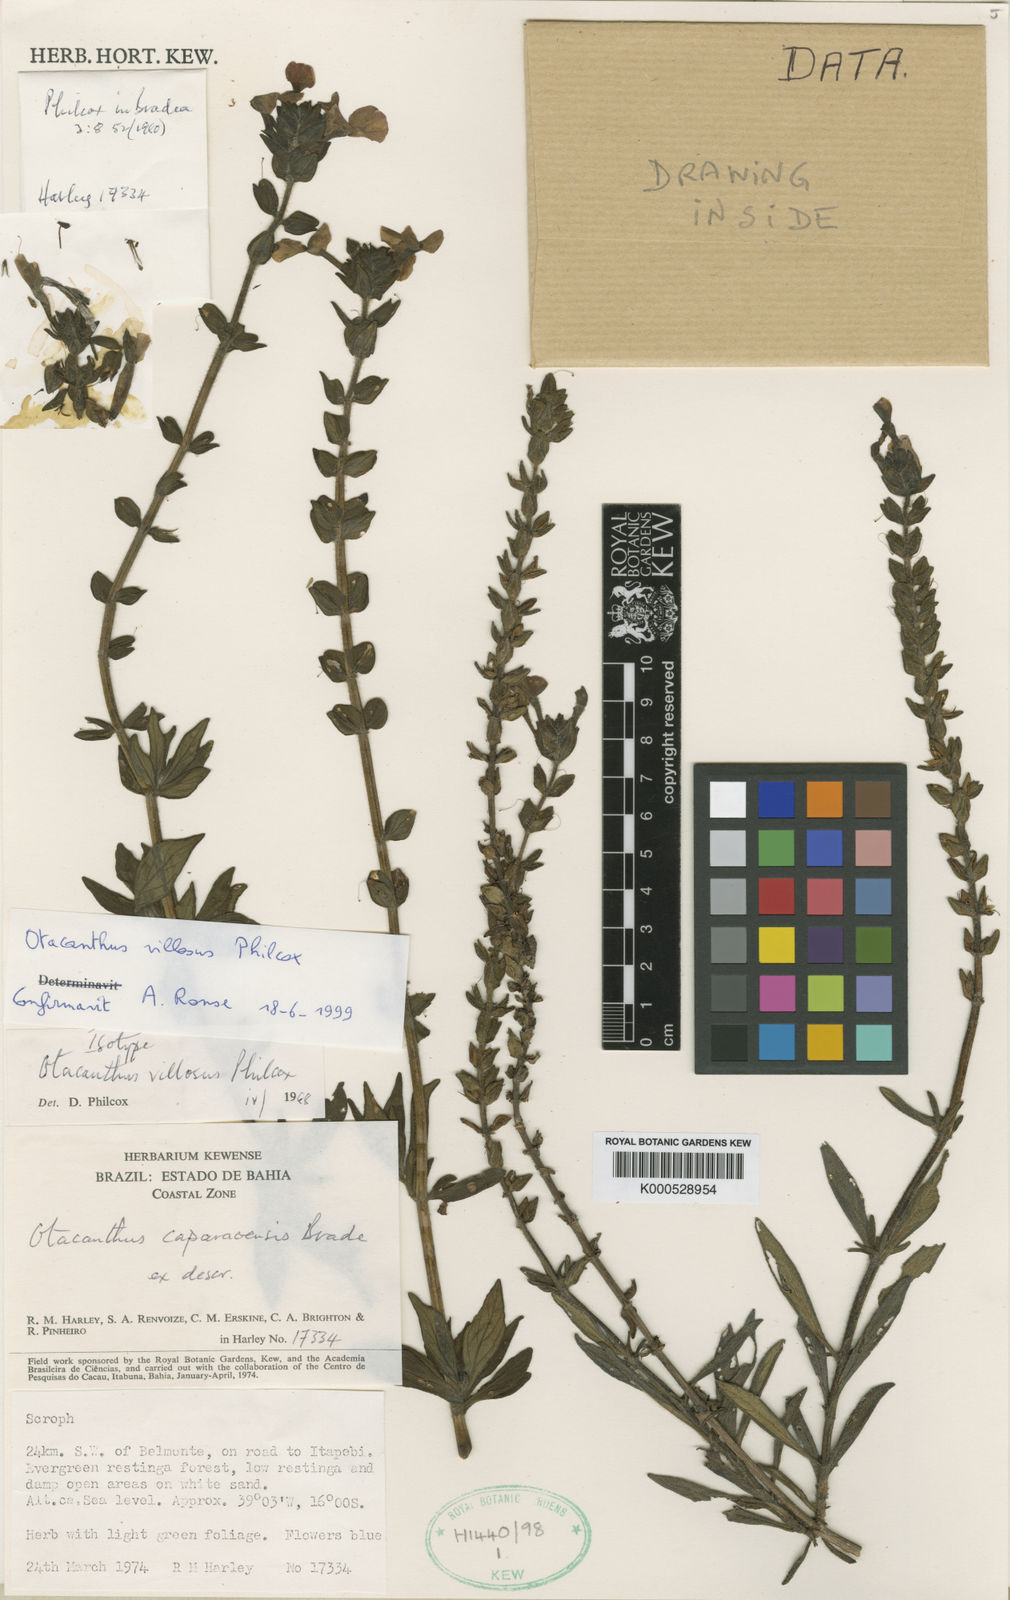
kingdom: Plantae
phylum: Tracheophyta
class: Magnoliopsida
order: Lamiales
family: Plantaginaceae
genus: Matourea
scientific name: Matourea platychila
